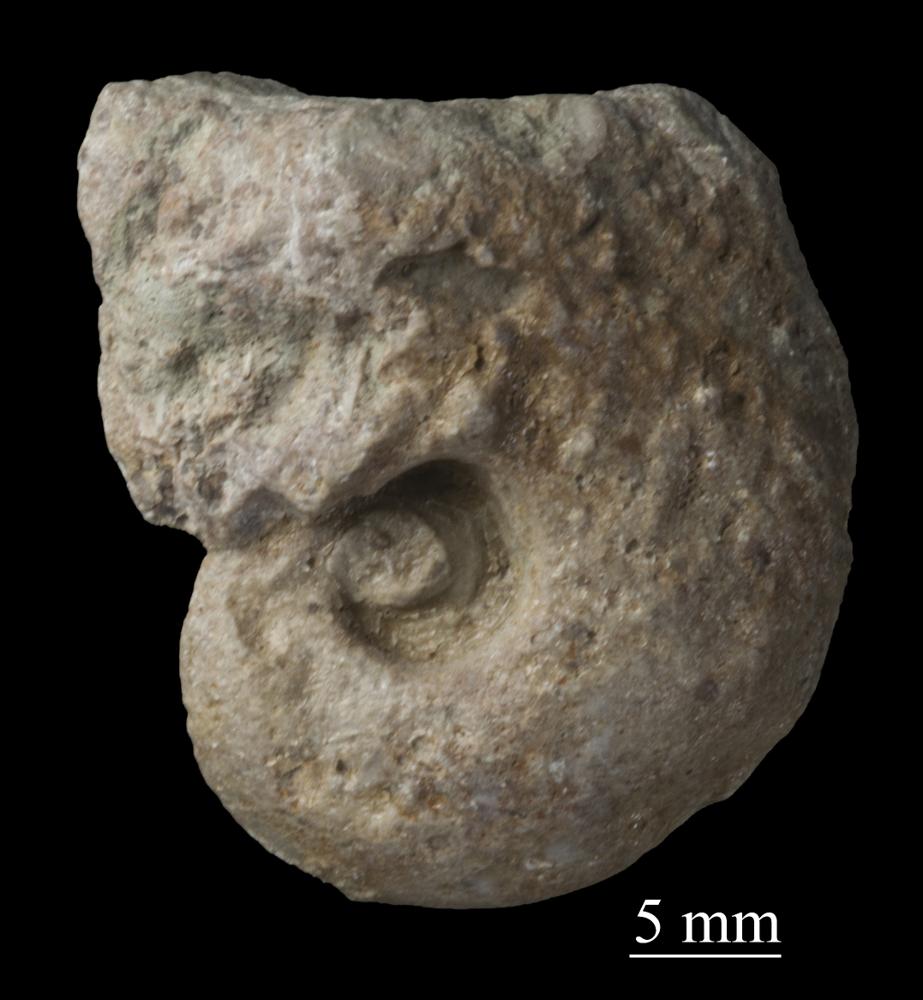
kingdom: Animalia
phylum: Mollusca
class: Gastropoda
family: Bellerophontidae
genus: Bellerophon
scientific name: Bellerophon
